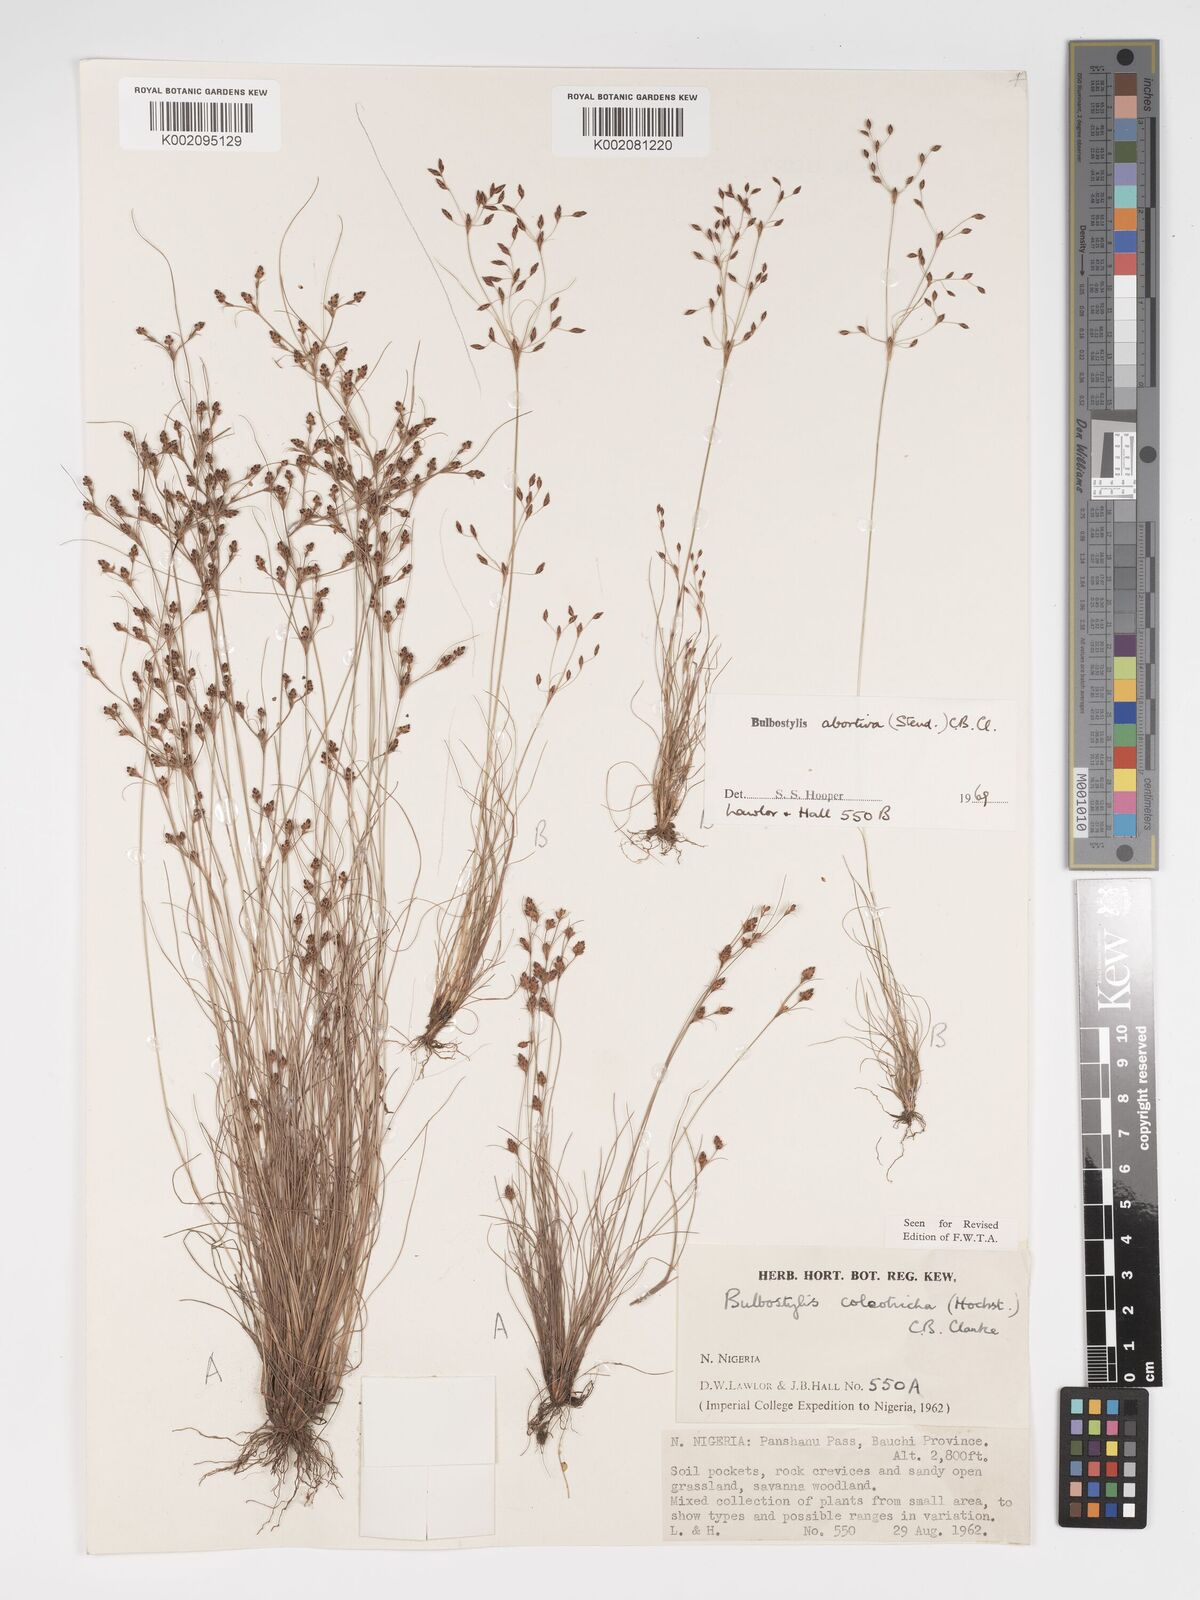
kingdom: Plantae
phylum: Tracheophyta
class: Liliopsida
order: Poales
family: Cyperaceae
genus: Bulbostylis
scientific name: Bulbostylis coleotricha
